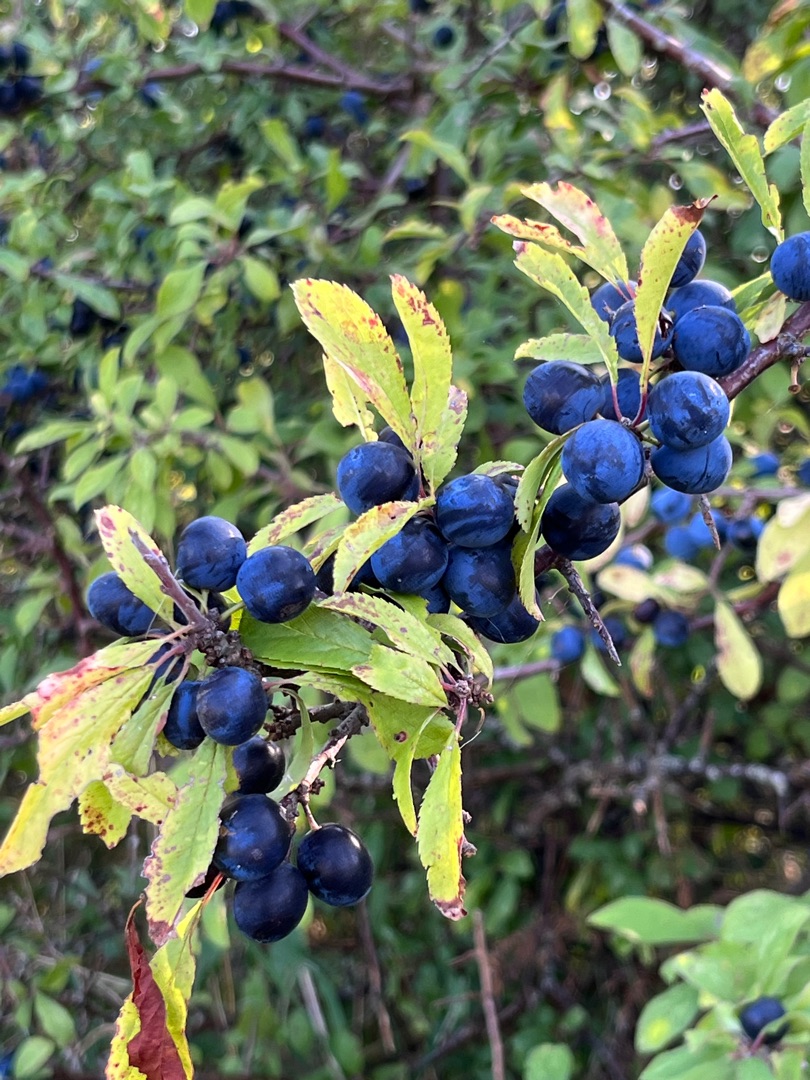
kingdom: Plantae
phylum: Tracheophyta
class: Magnoliopsida
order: Rosales
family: Rosaceae
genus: Prunus
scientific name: Prunus spinosa
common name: Slåen
